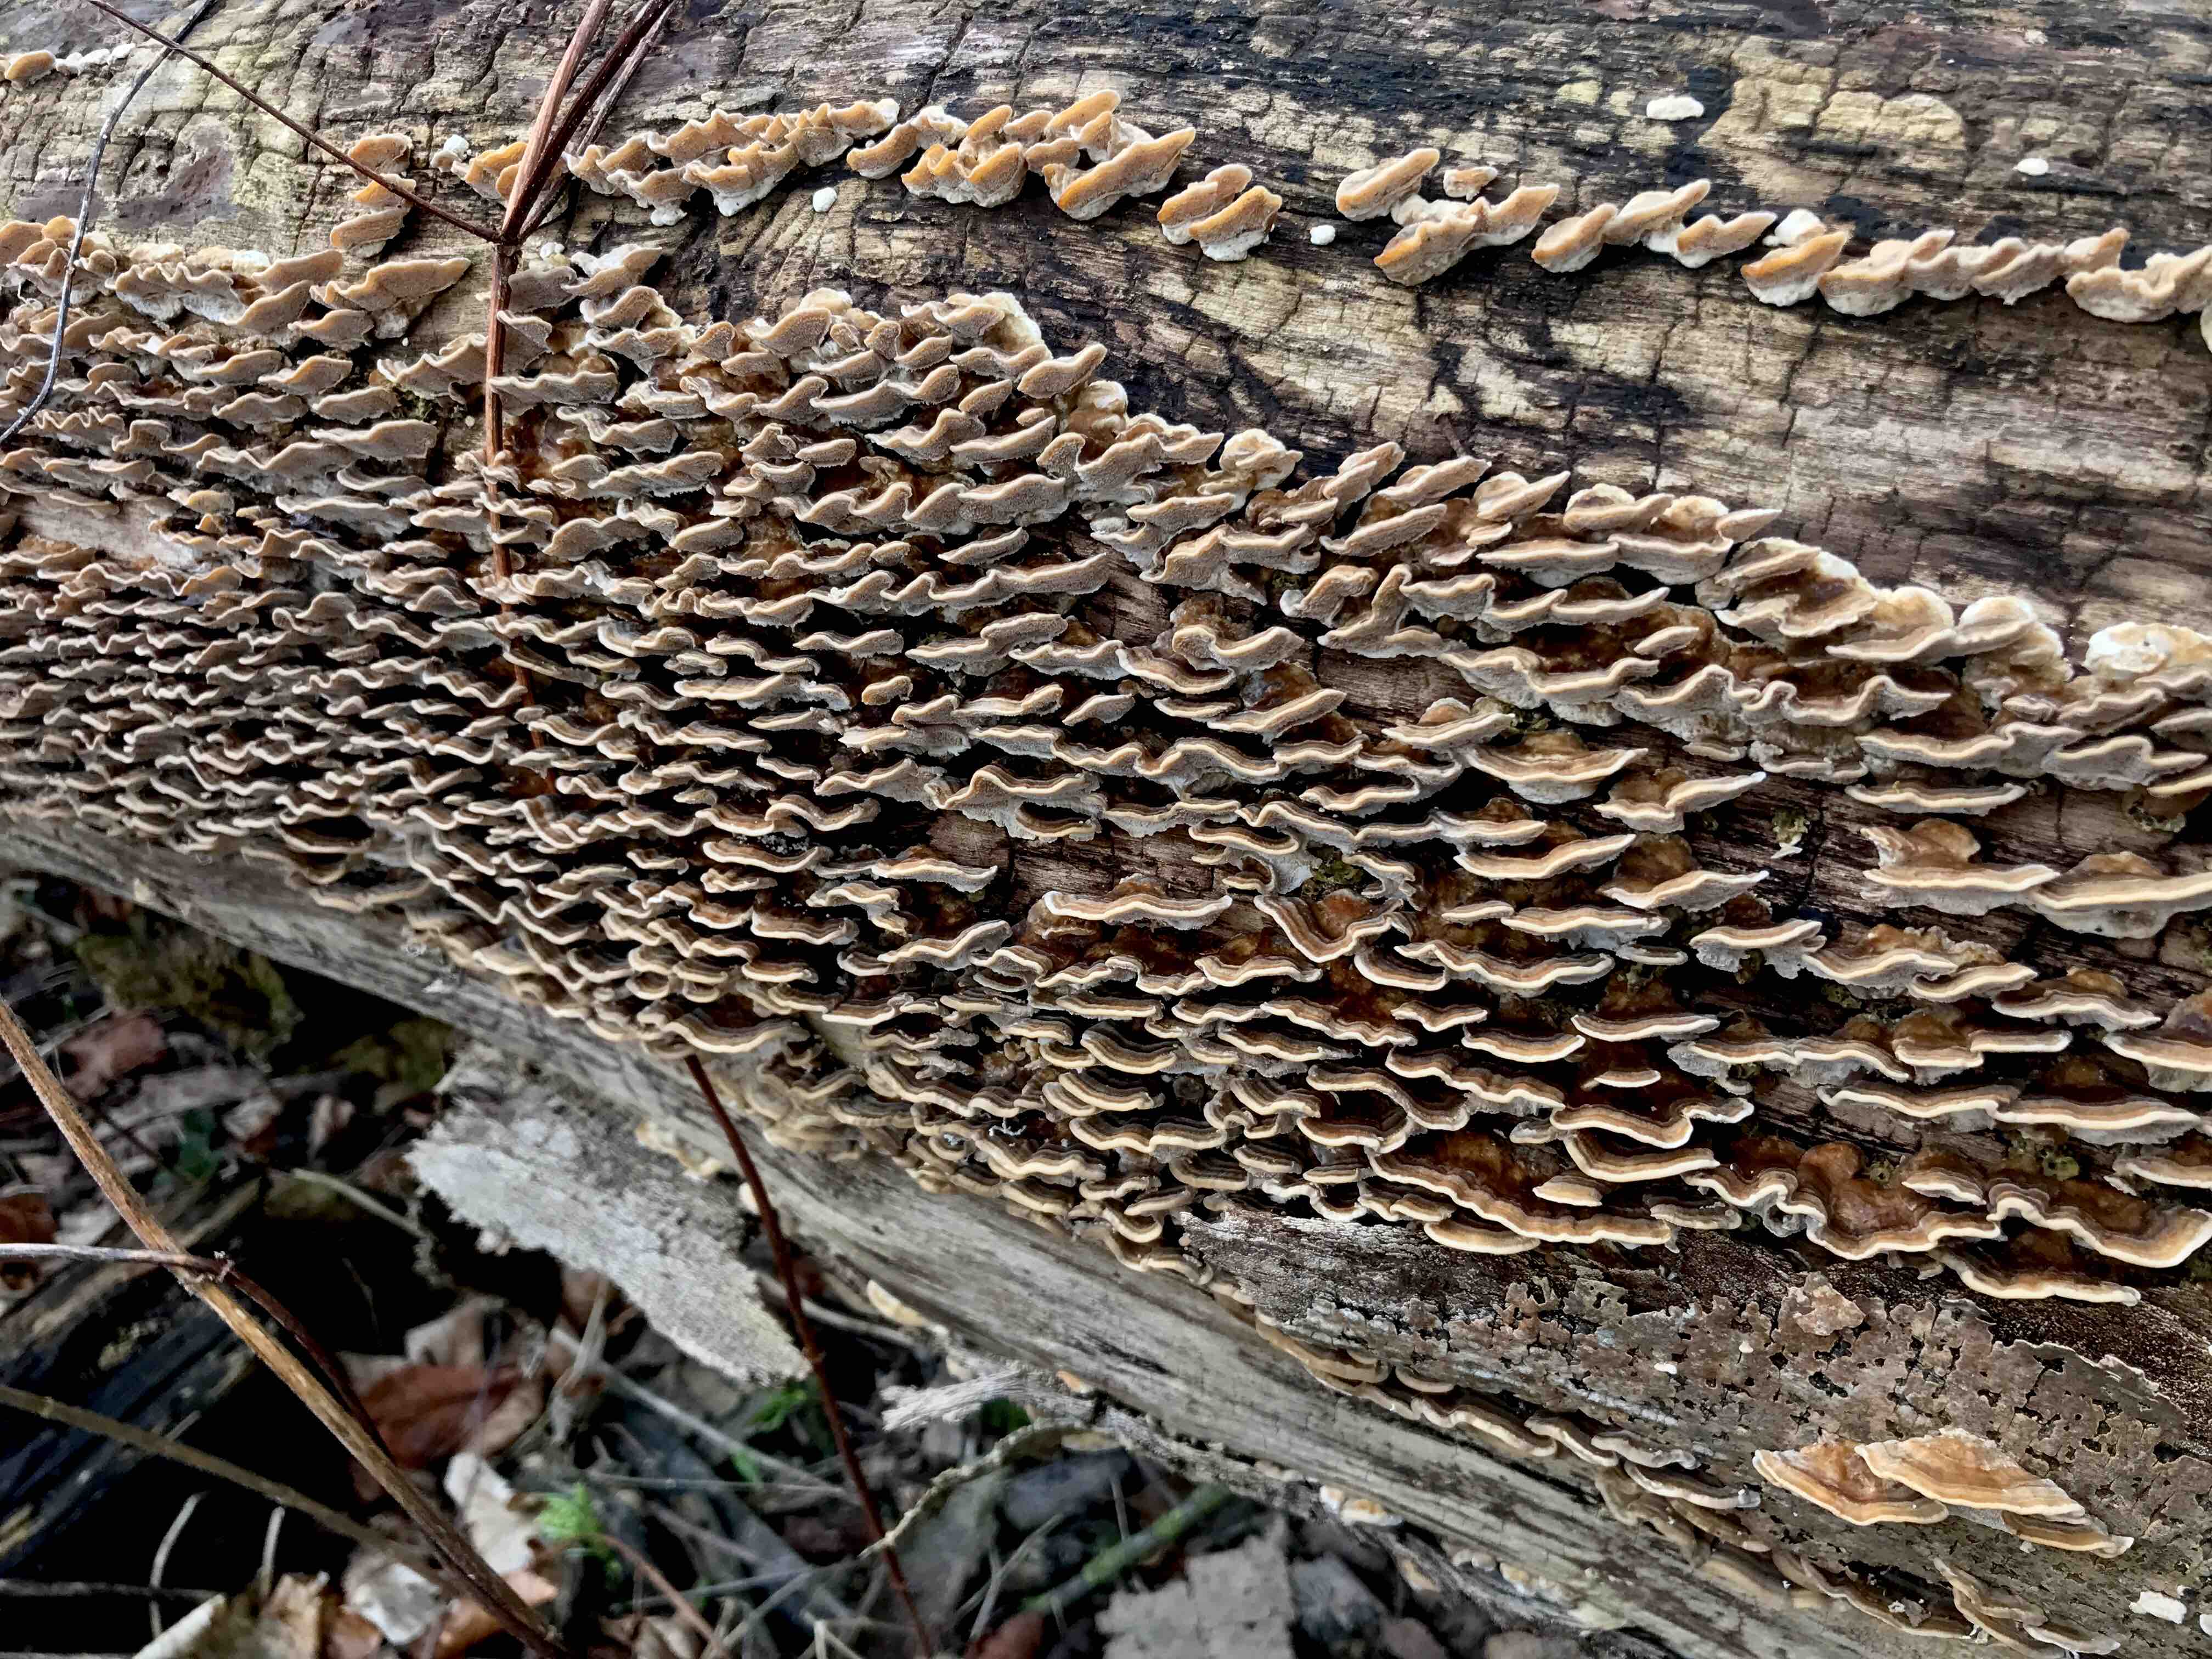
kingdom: Fungi
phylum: Basidiomycota
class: Agaricomycetes
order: Polyporales
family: Phanerochaetaceae
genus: Bjerkandera
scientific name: Bjerkandera fumosa
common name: grågul sodporesvamp
